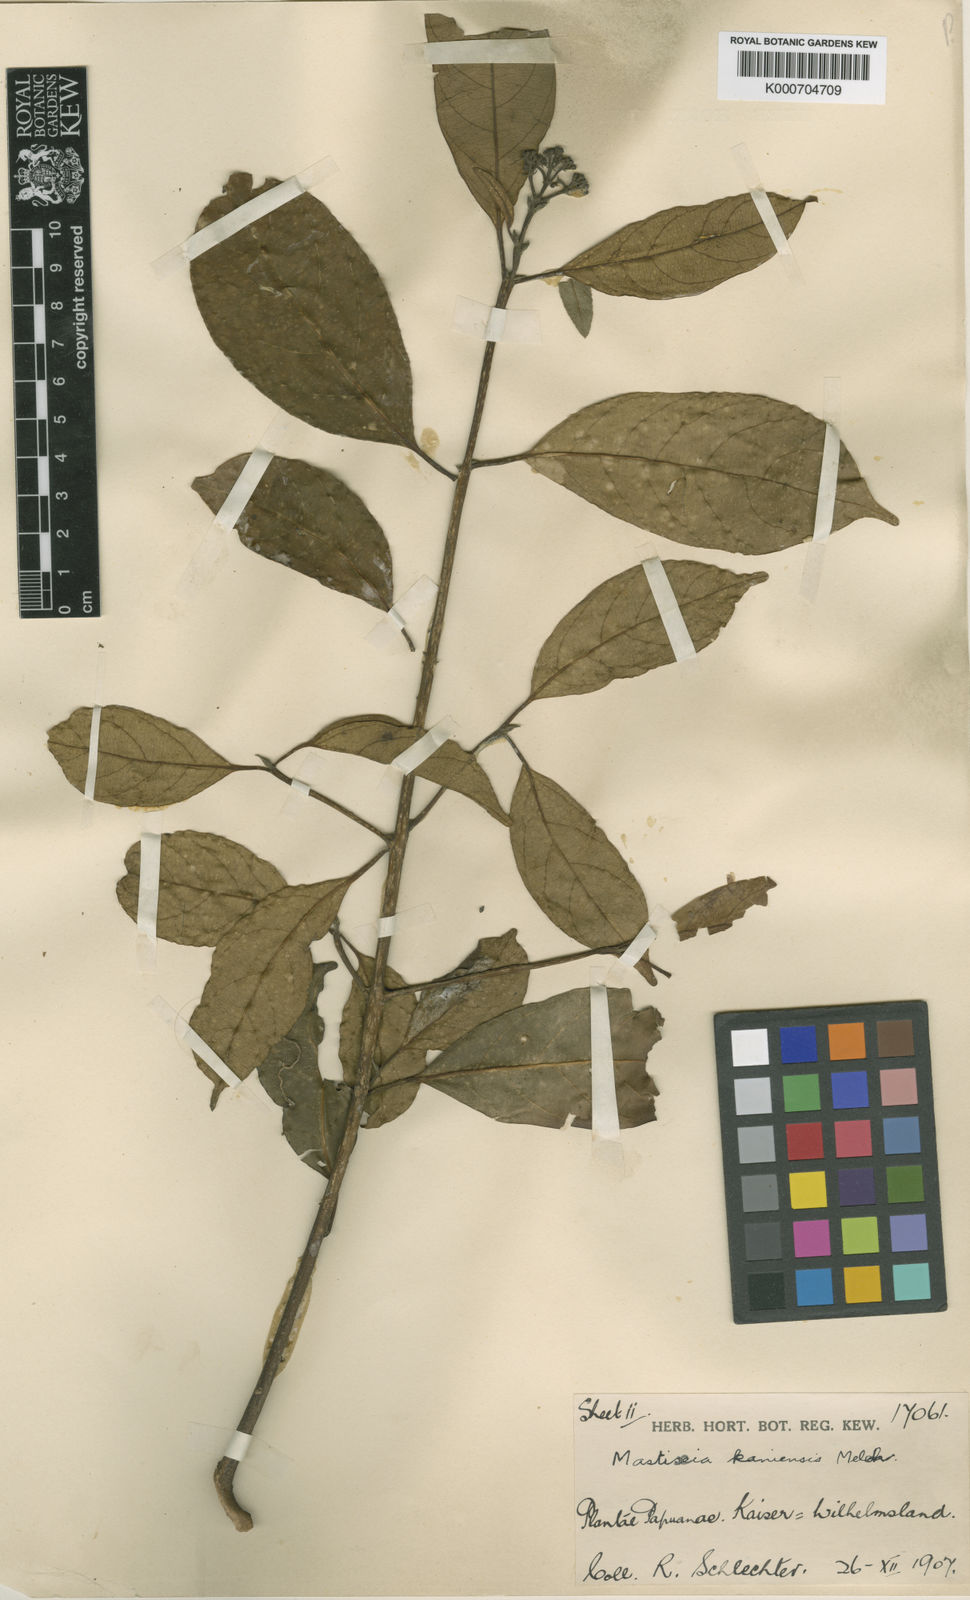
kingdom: Plantae
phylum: Tracheophyta
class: Magnoliopsida
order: Cornales
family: Nyssaceae
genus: Mastixia
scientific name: Mastixia kaniensis
